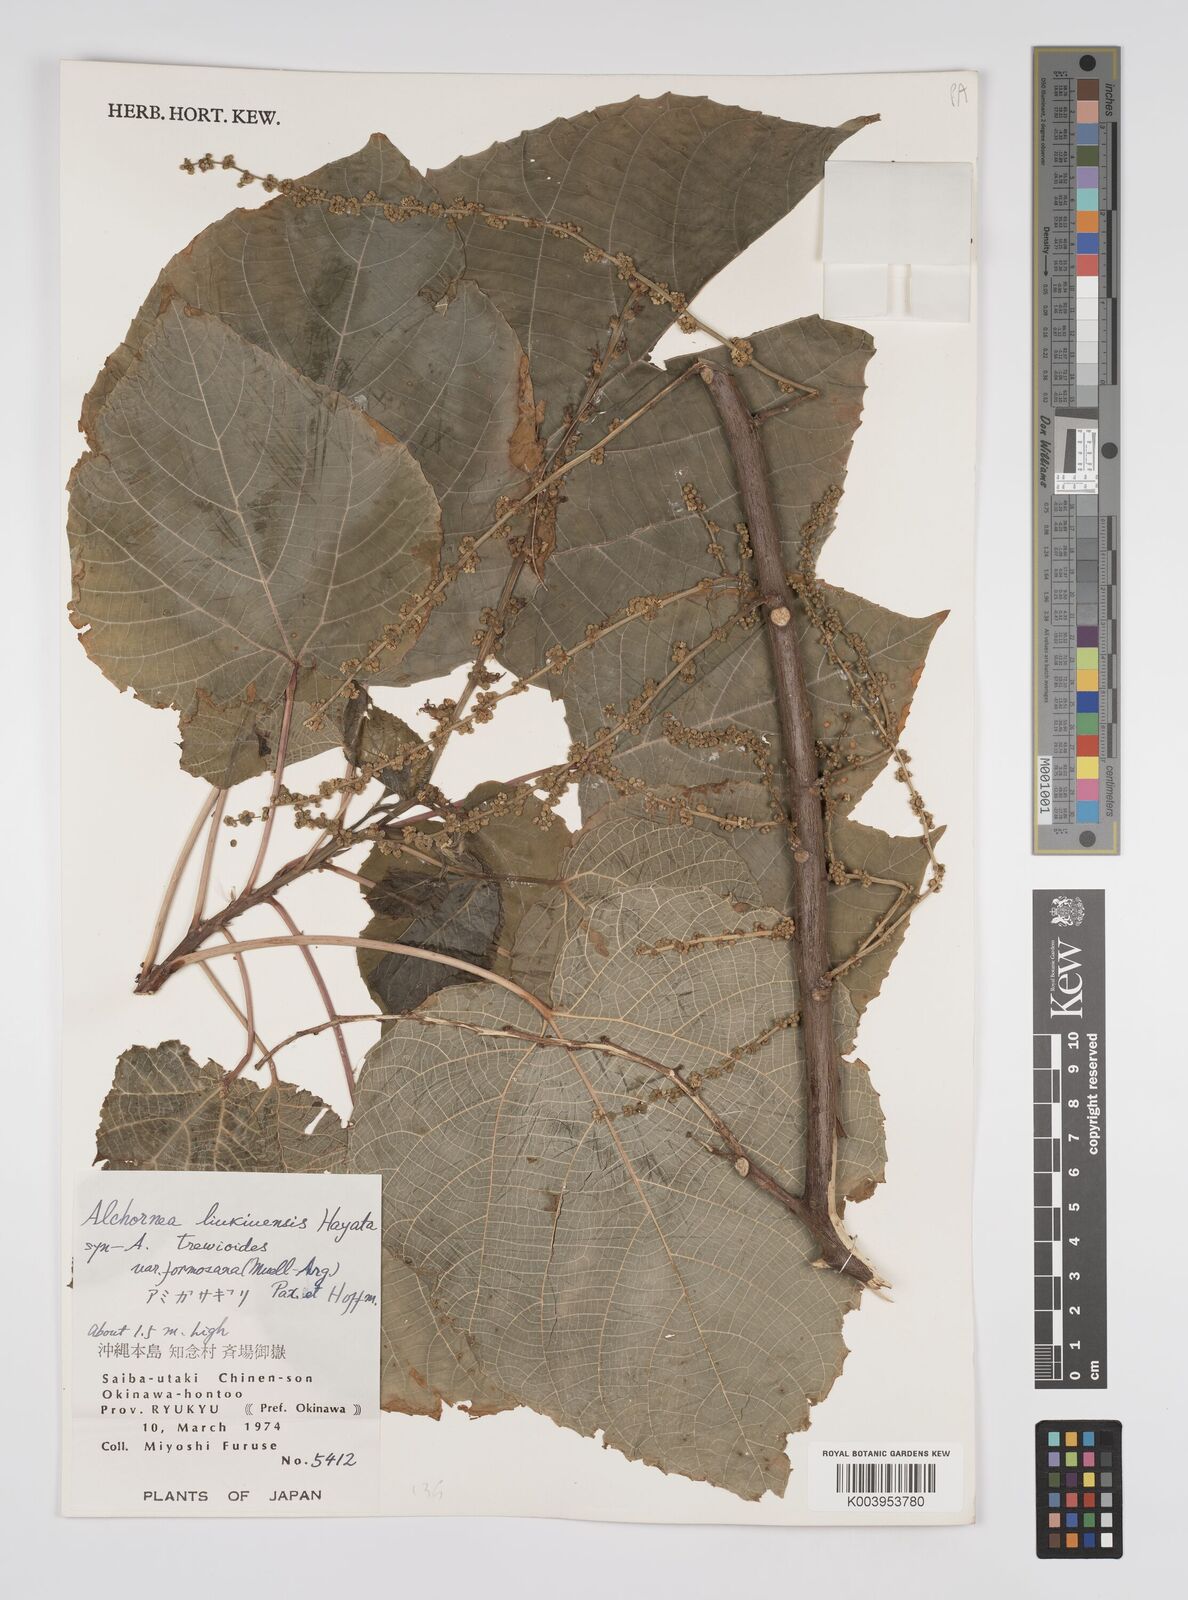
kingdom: Plantae
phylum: Tracheophyta
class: Magnoliopsida
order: Malpighiales
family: Euphorbiaceae
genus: Alchornea
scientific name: Alchornea liukiuensis
